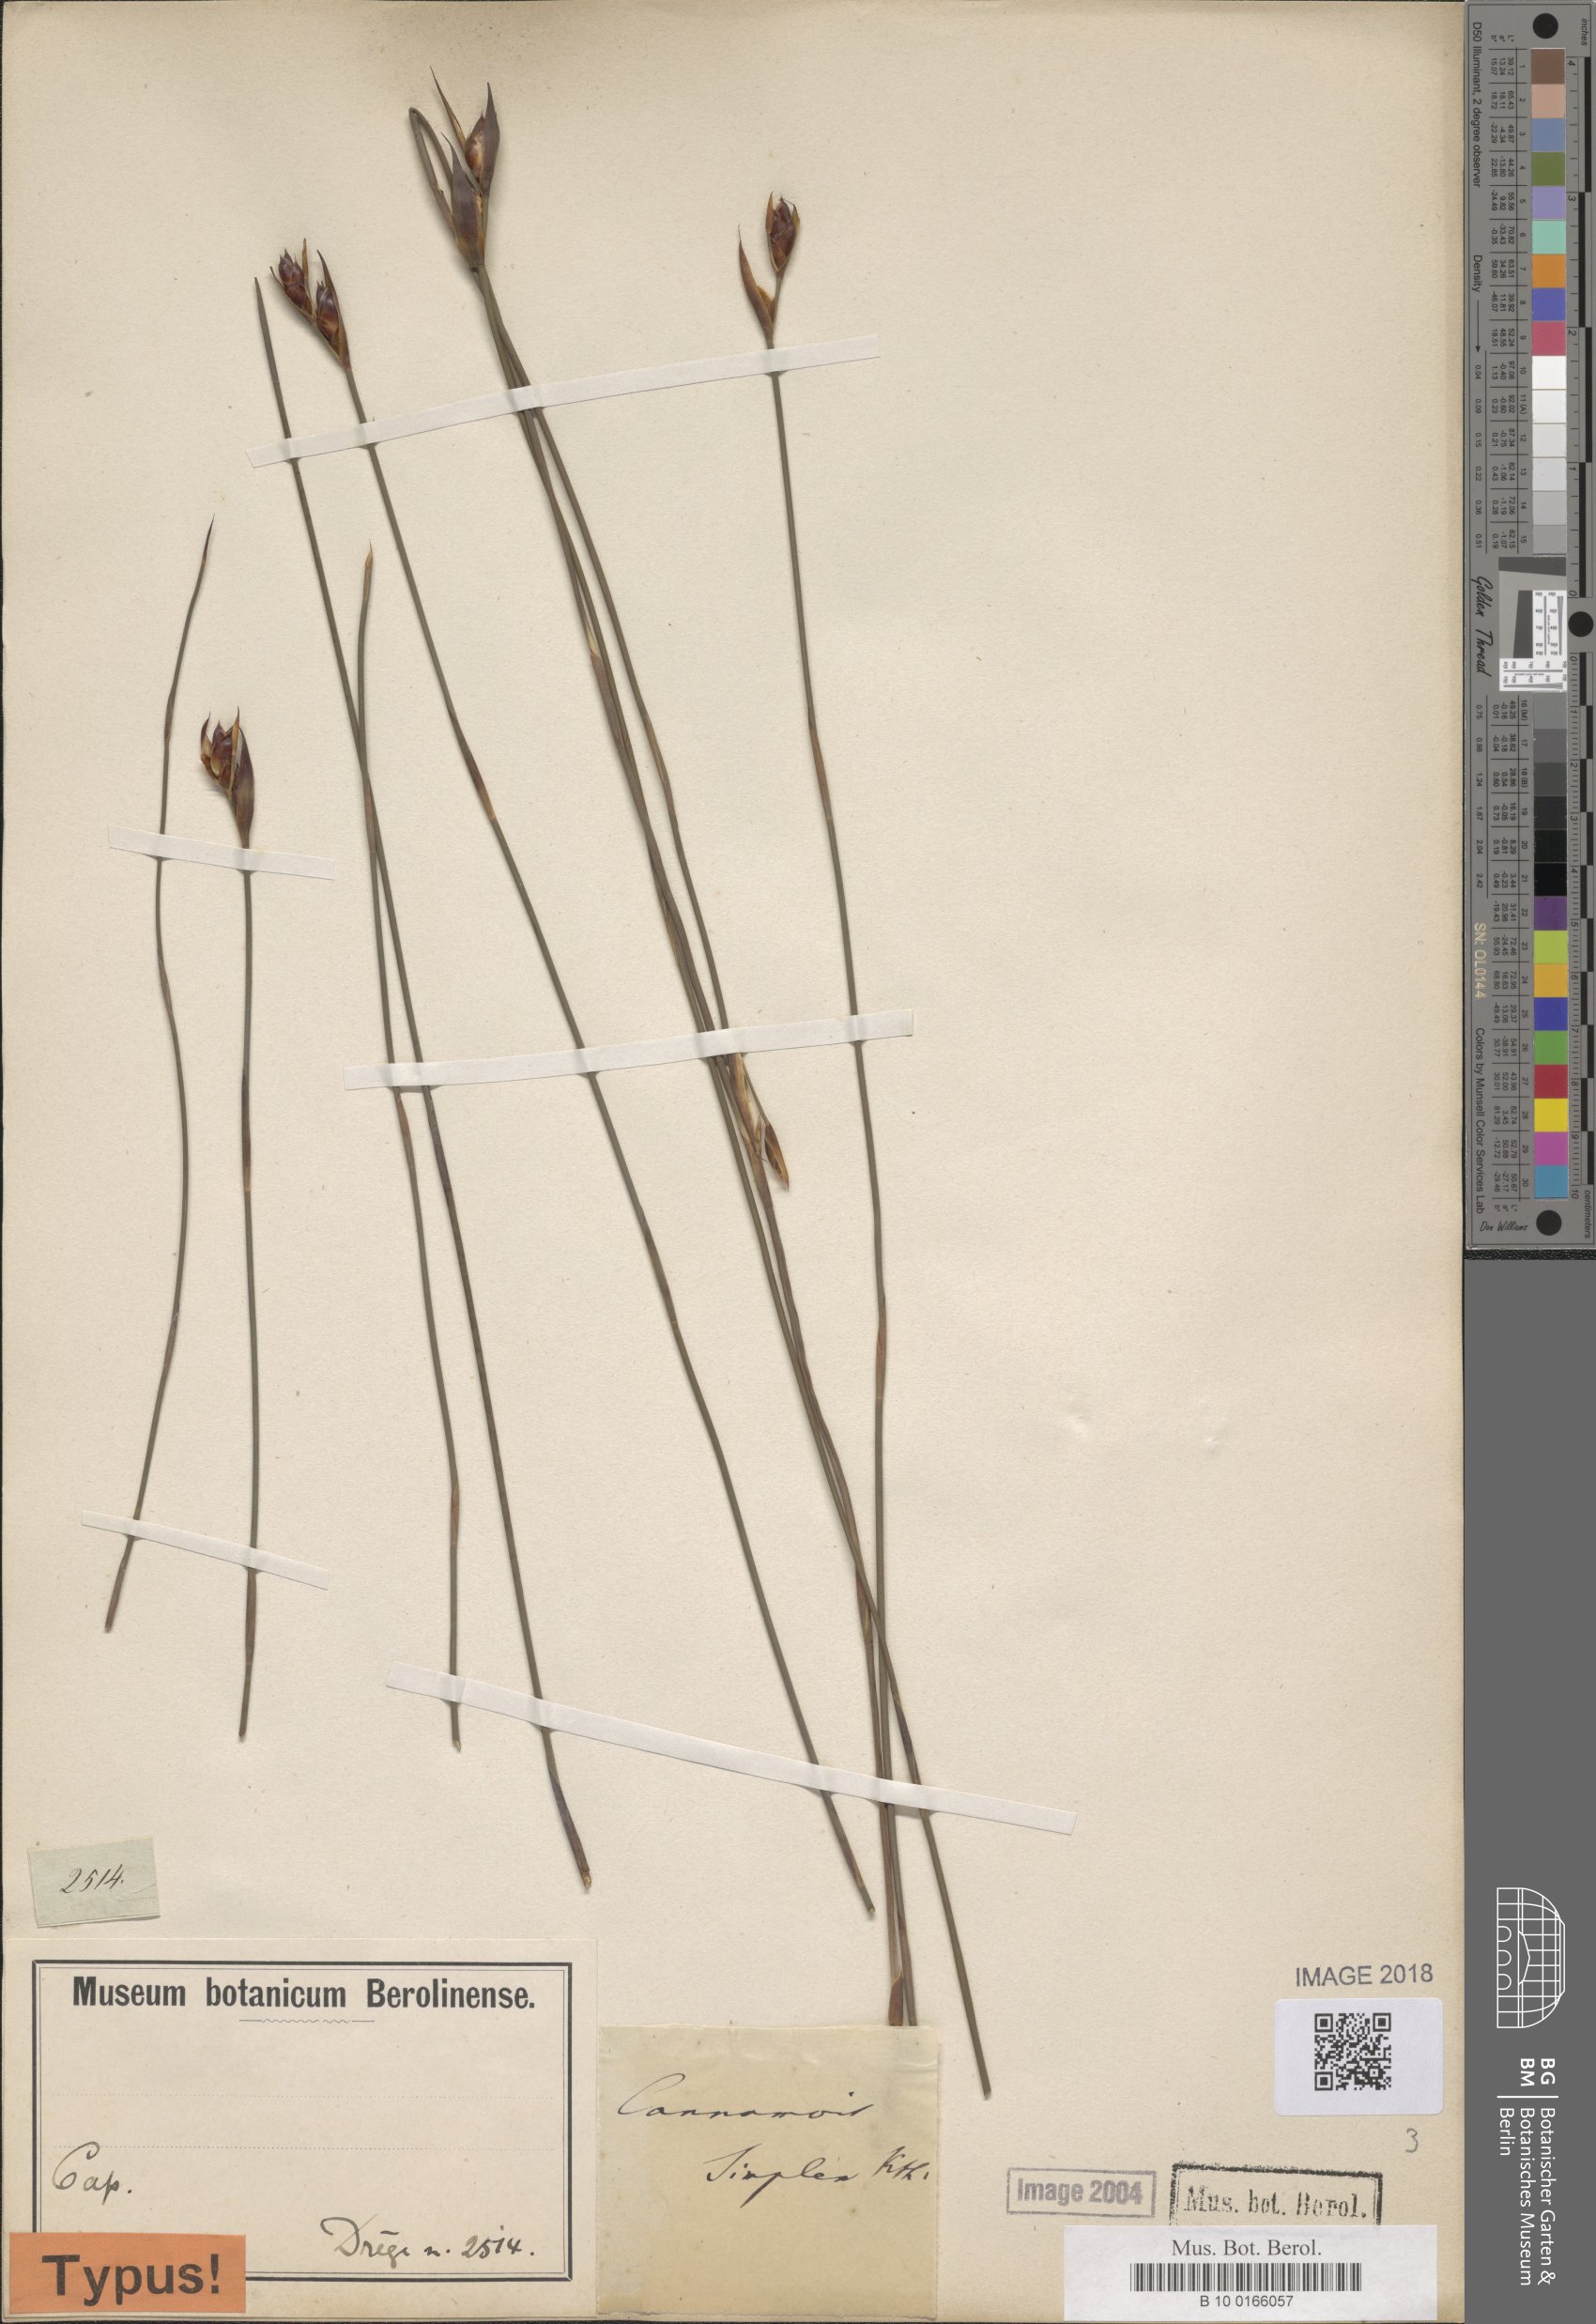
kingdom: Plantae
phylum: Tracheophyta
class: Liliopsida
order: Poales
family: Restionaceae
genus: Cannomois
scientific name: Cannomois parviflora
